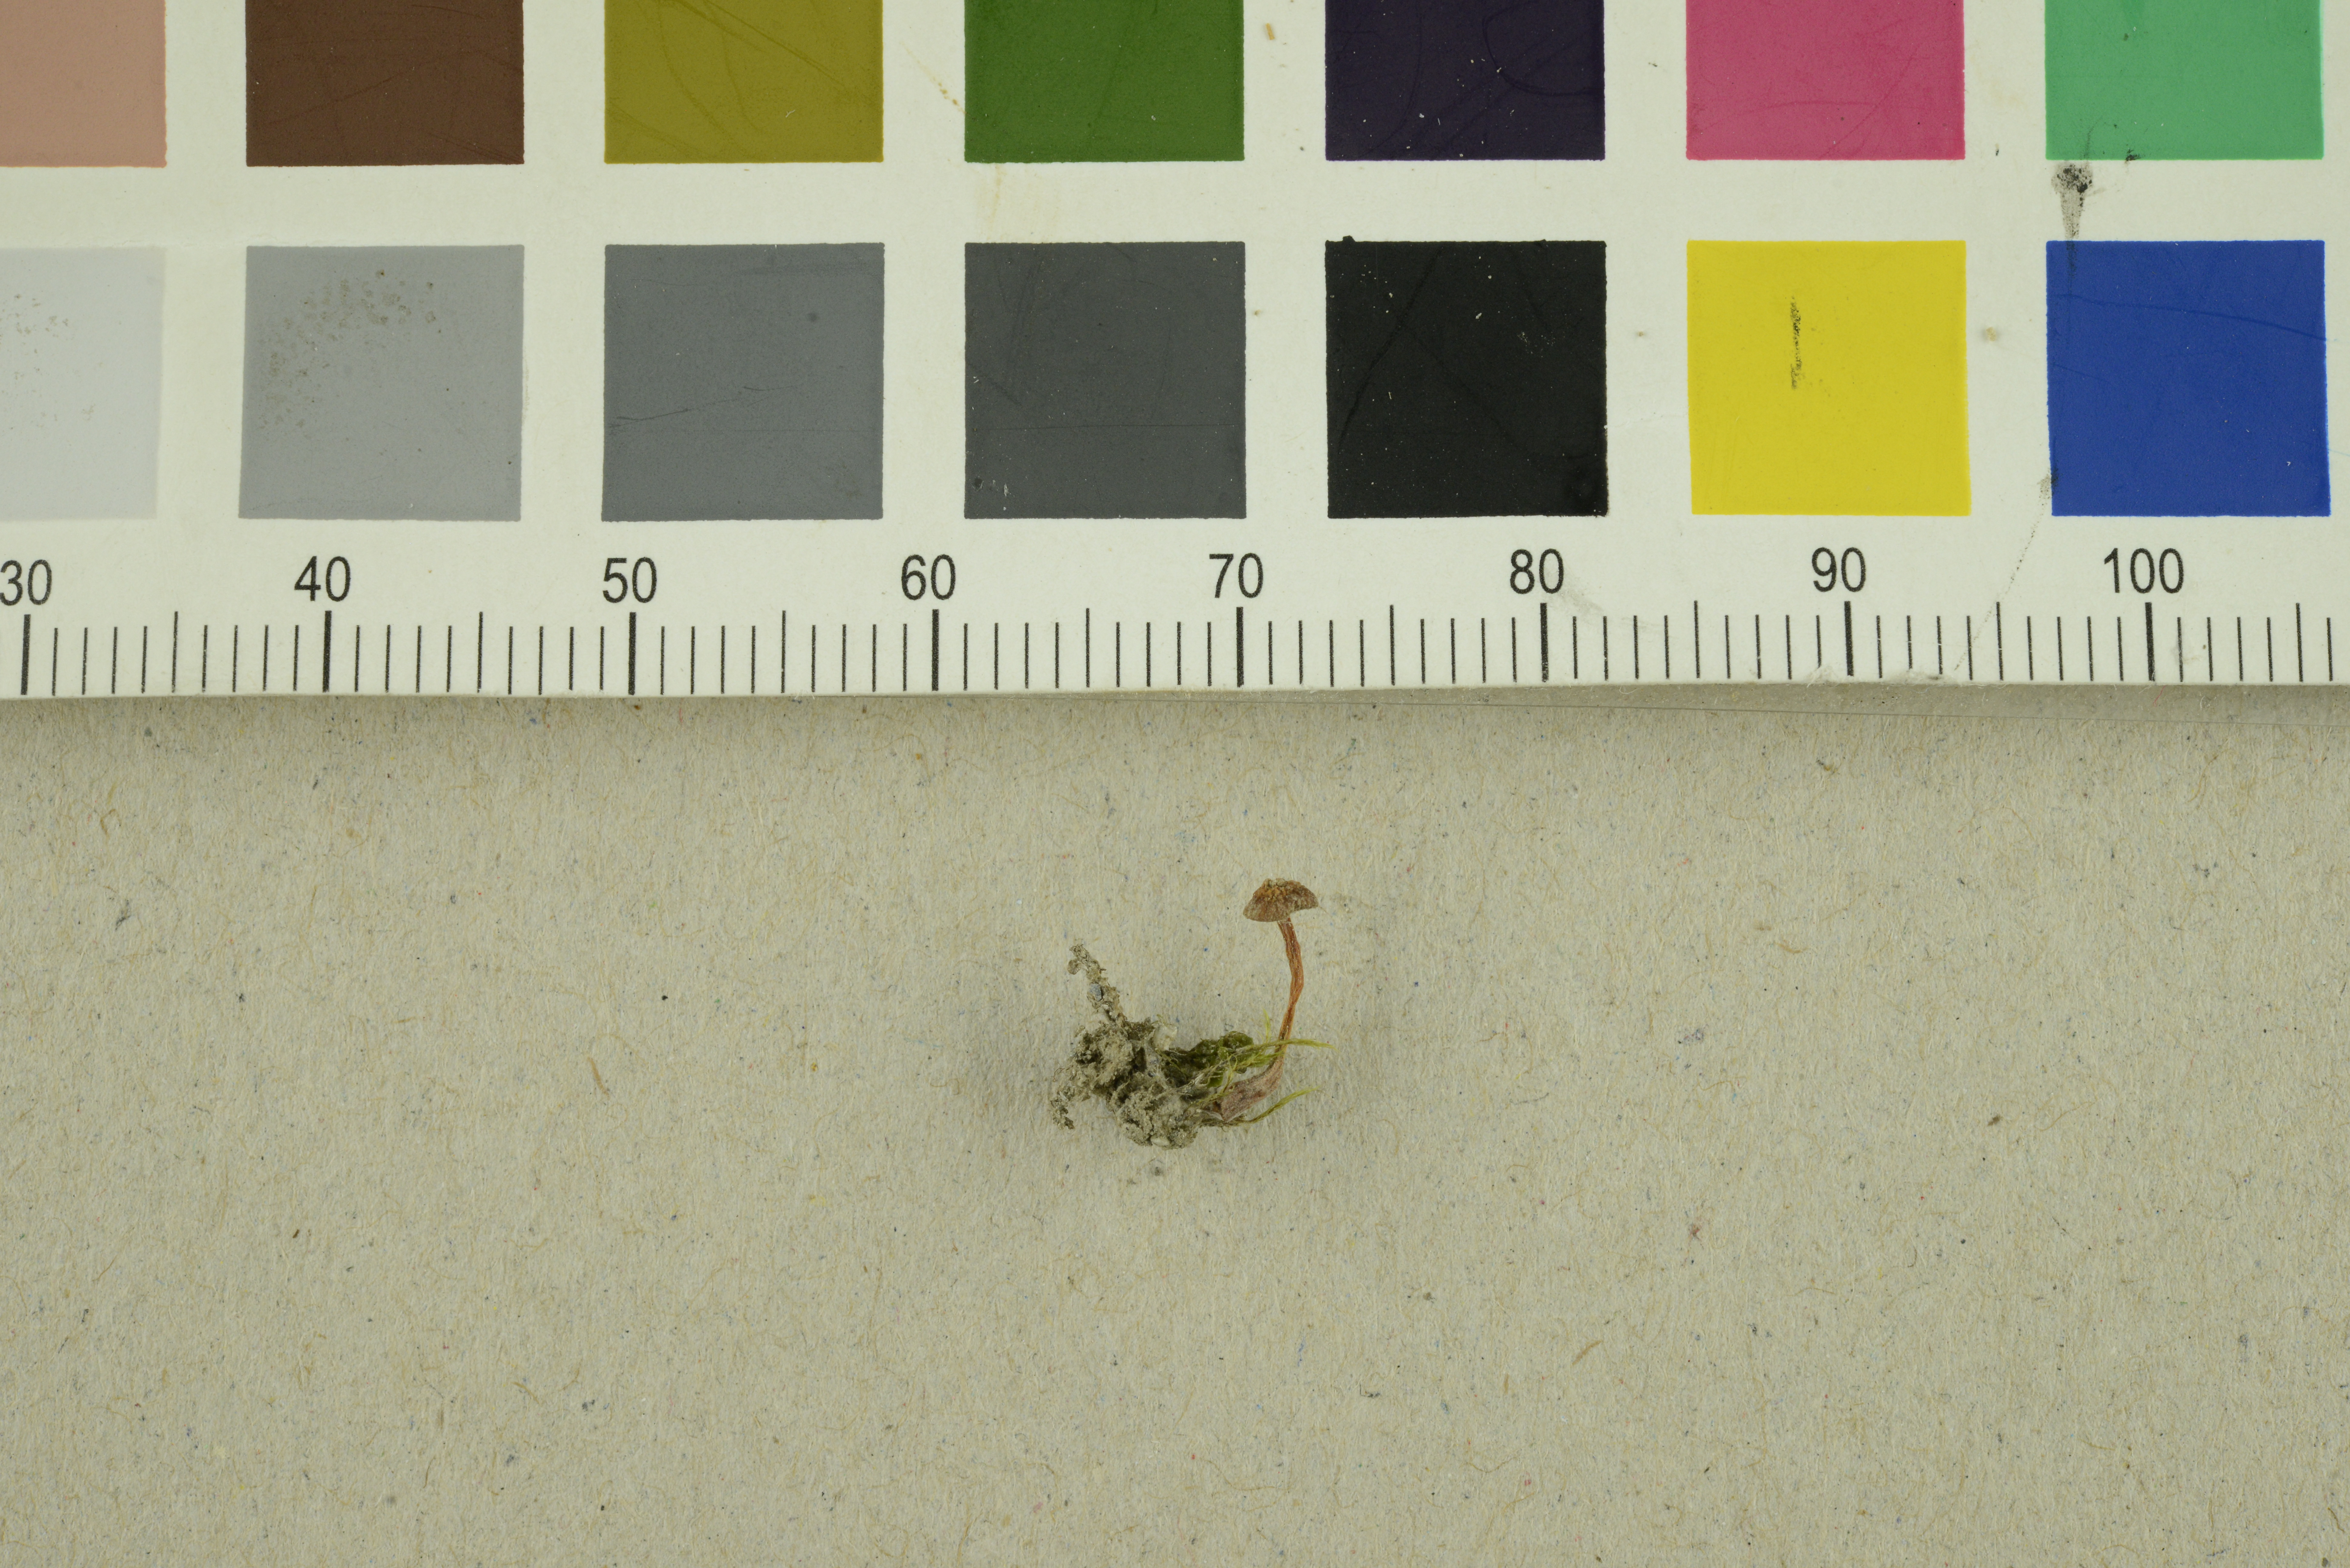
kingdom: Fungi
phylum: Basidiomycota
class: Agaricomycetes
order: Agaricales
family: Hymenogastraceae
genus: Galerina
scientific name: Galerina vittiformis
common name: Hairy leg bell
